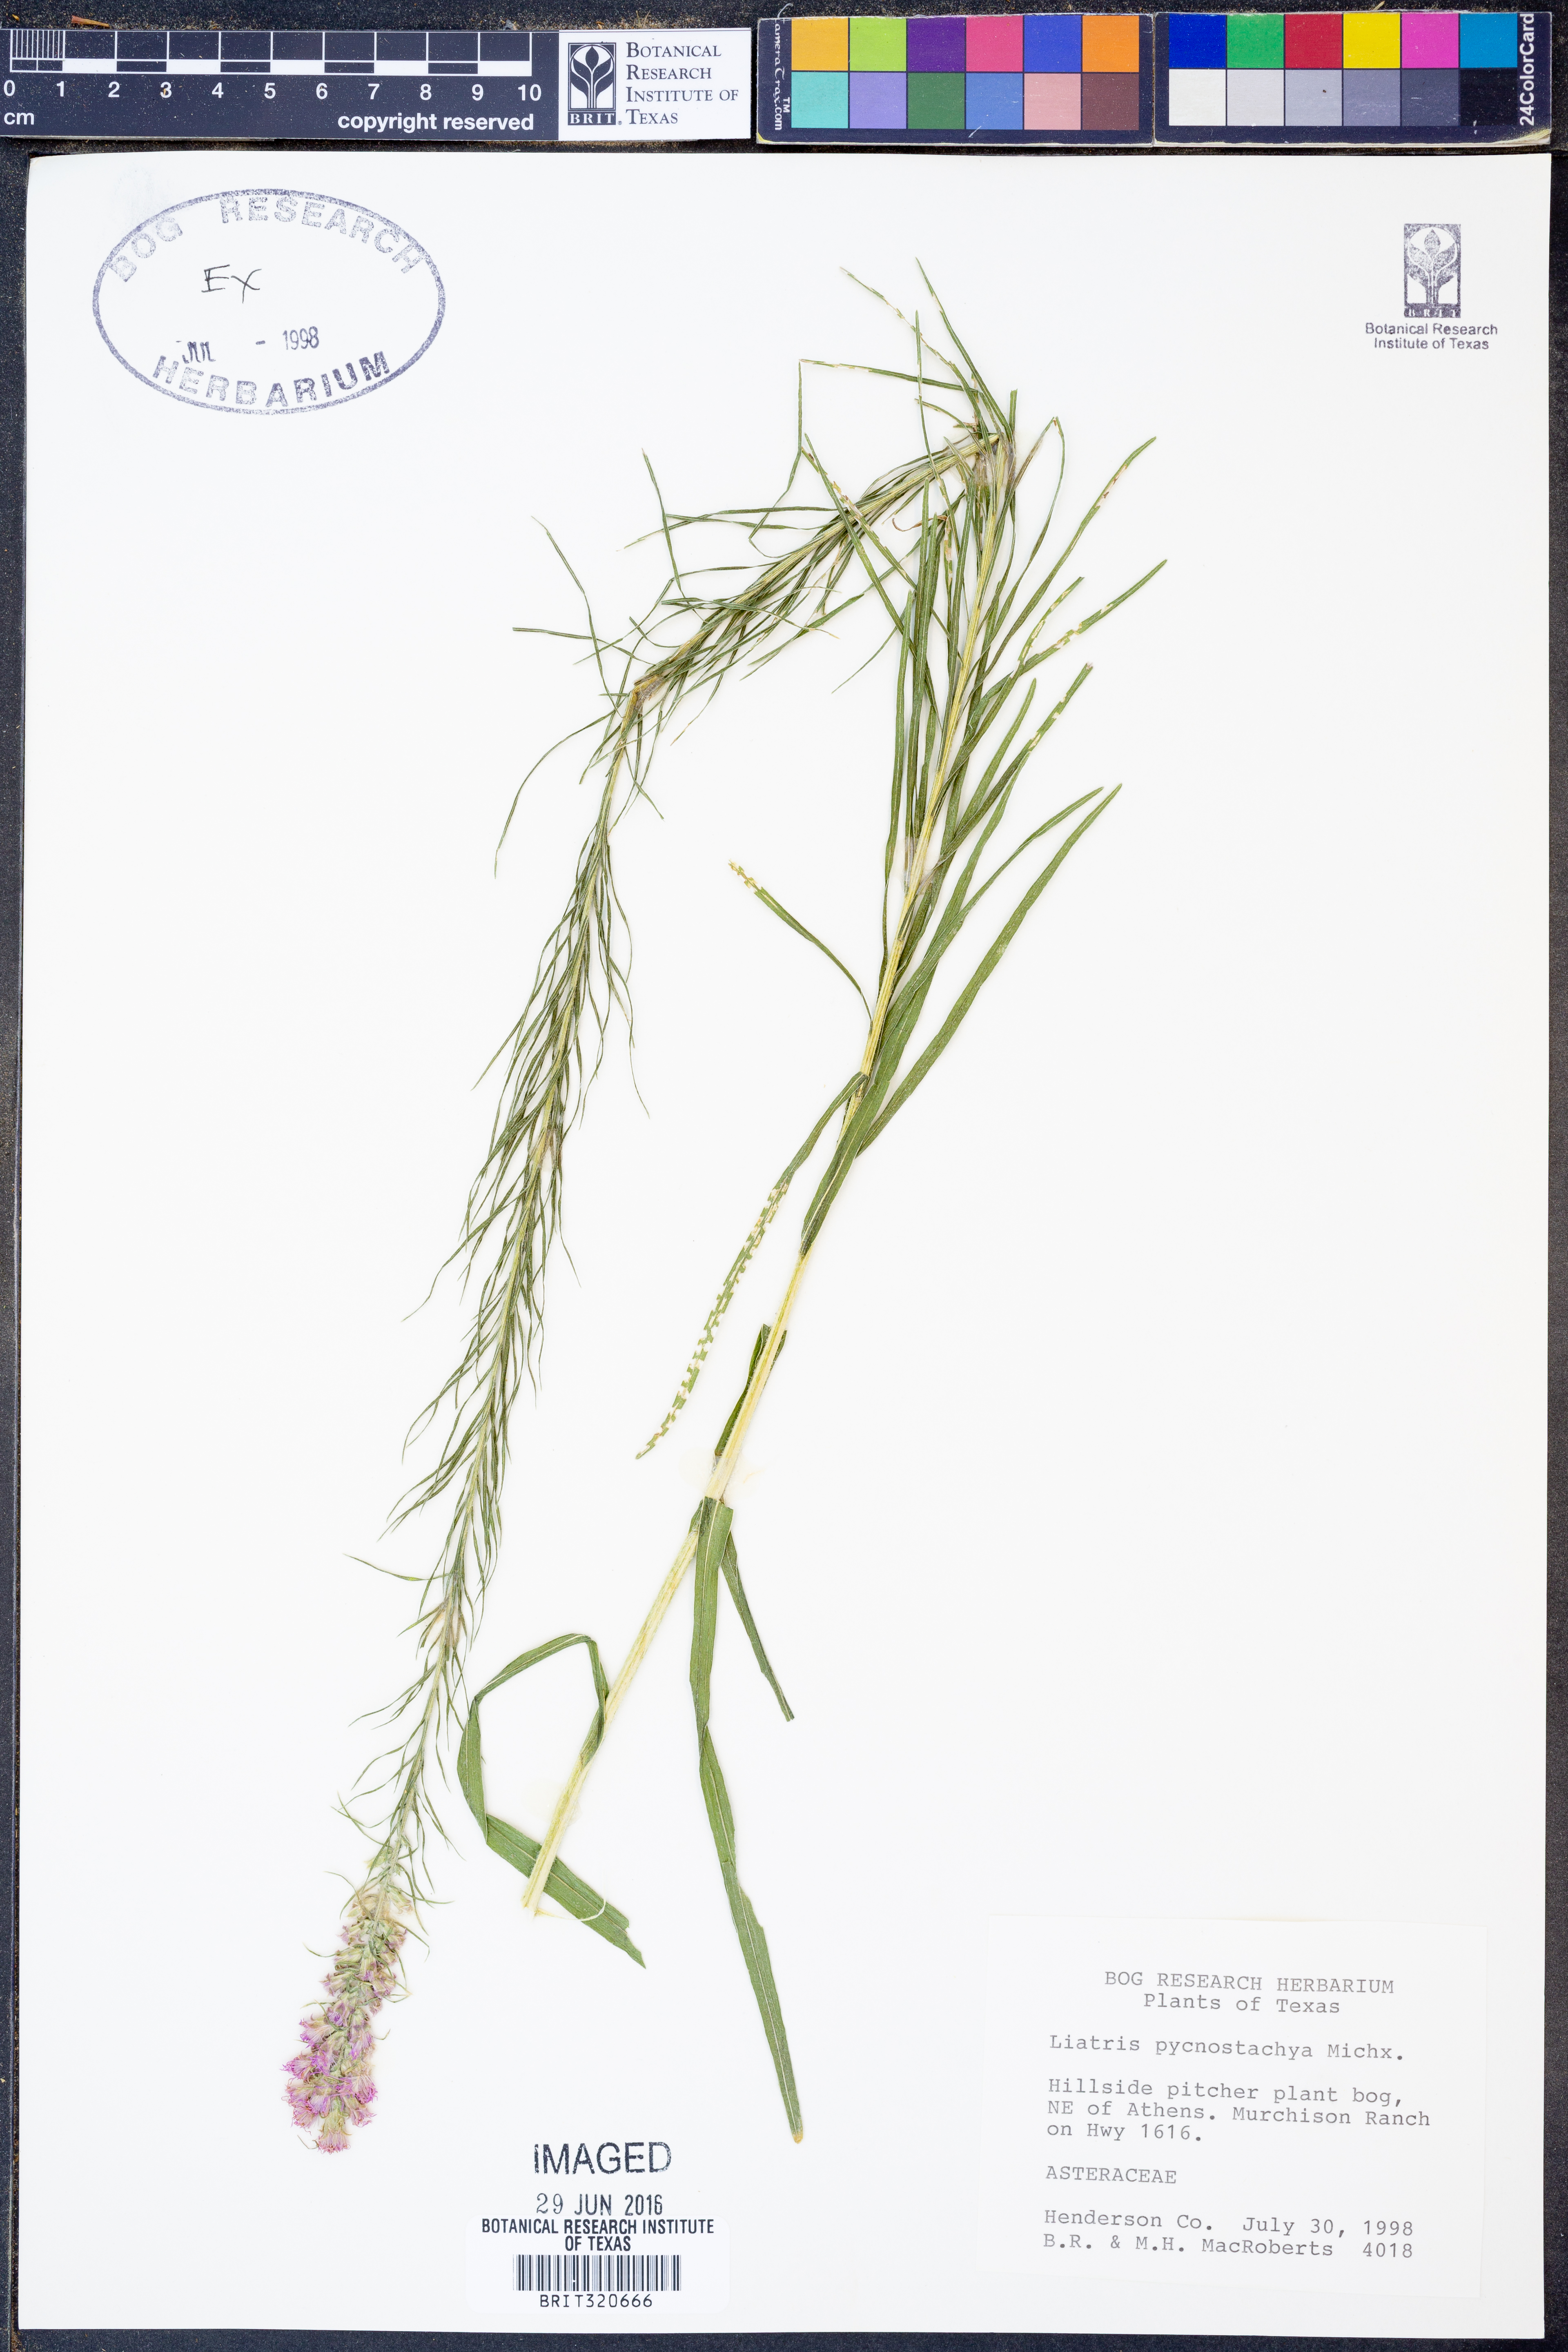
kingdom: Plantae
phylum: Tracheophyta
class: Magnoliopsida
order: Asterales
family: Asteraceae
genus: Liatris
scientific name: Liatris pycnostachya
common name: Cattail gayfeather
